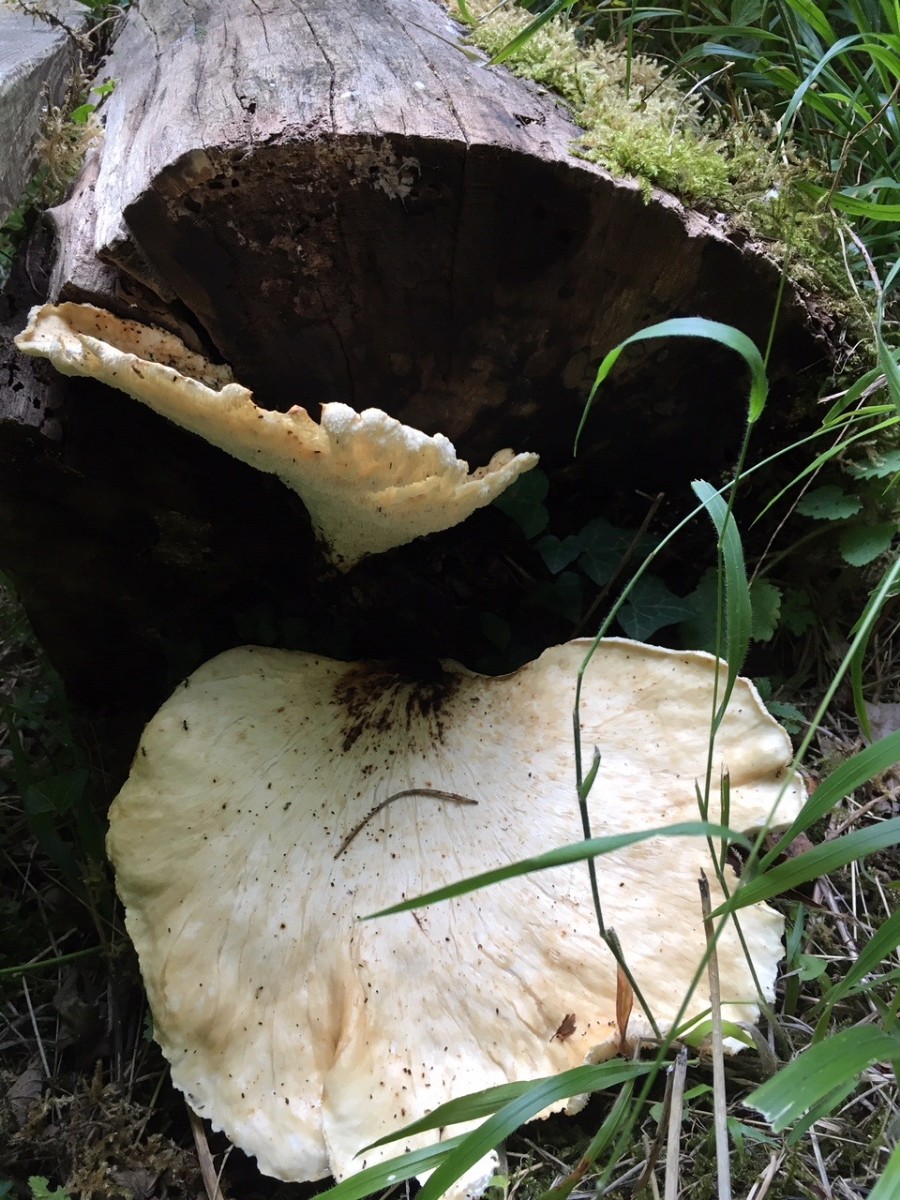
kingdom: Fungi
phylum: Basidiomycota
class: Agaricomycetes
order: Polyporales
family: Polyporaceae
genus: Cerioporus
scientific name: Cerioporus squamosus
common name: skællet stilkporesvamp
